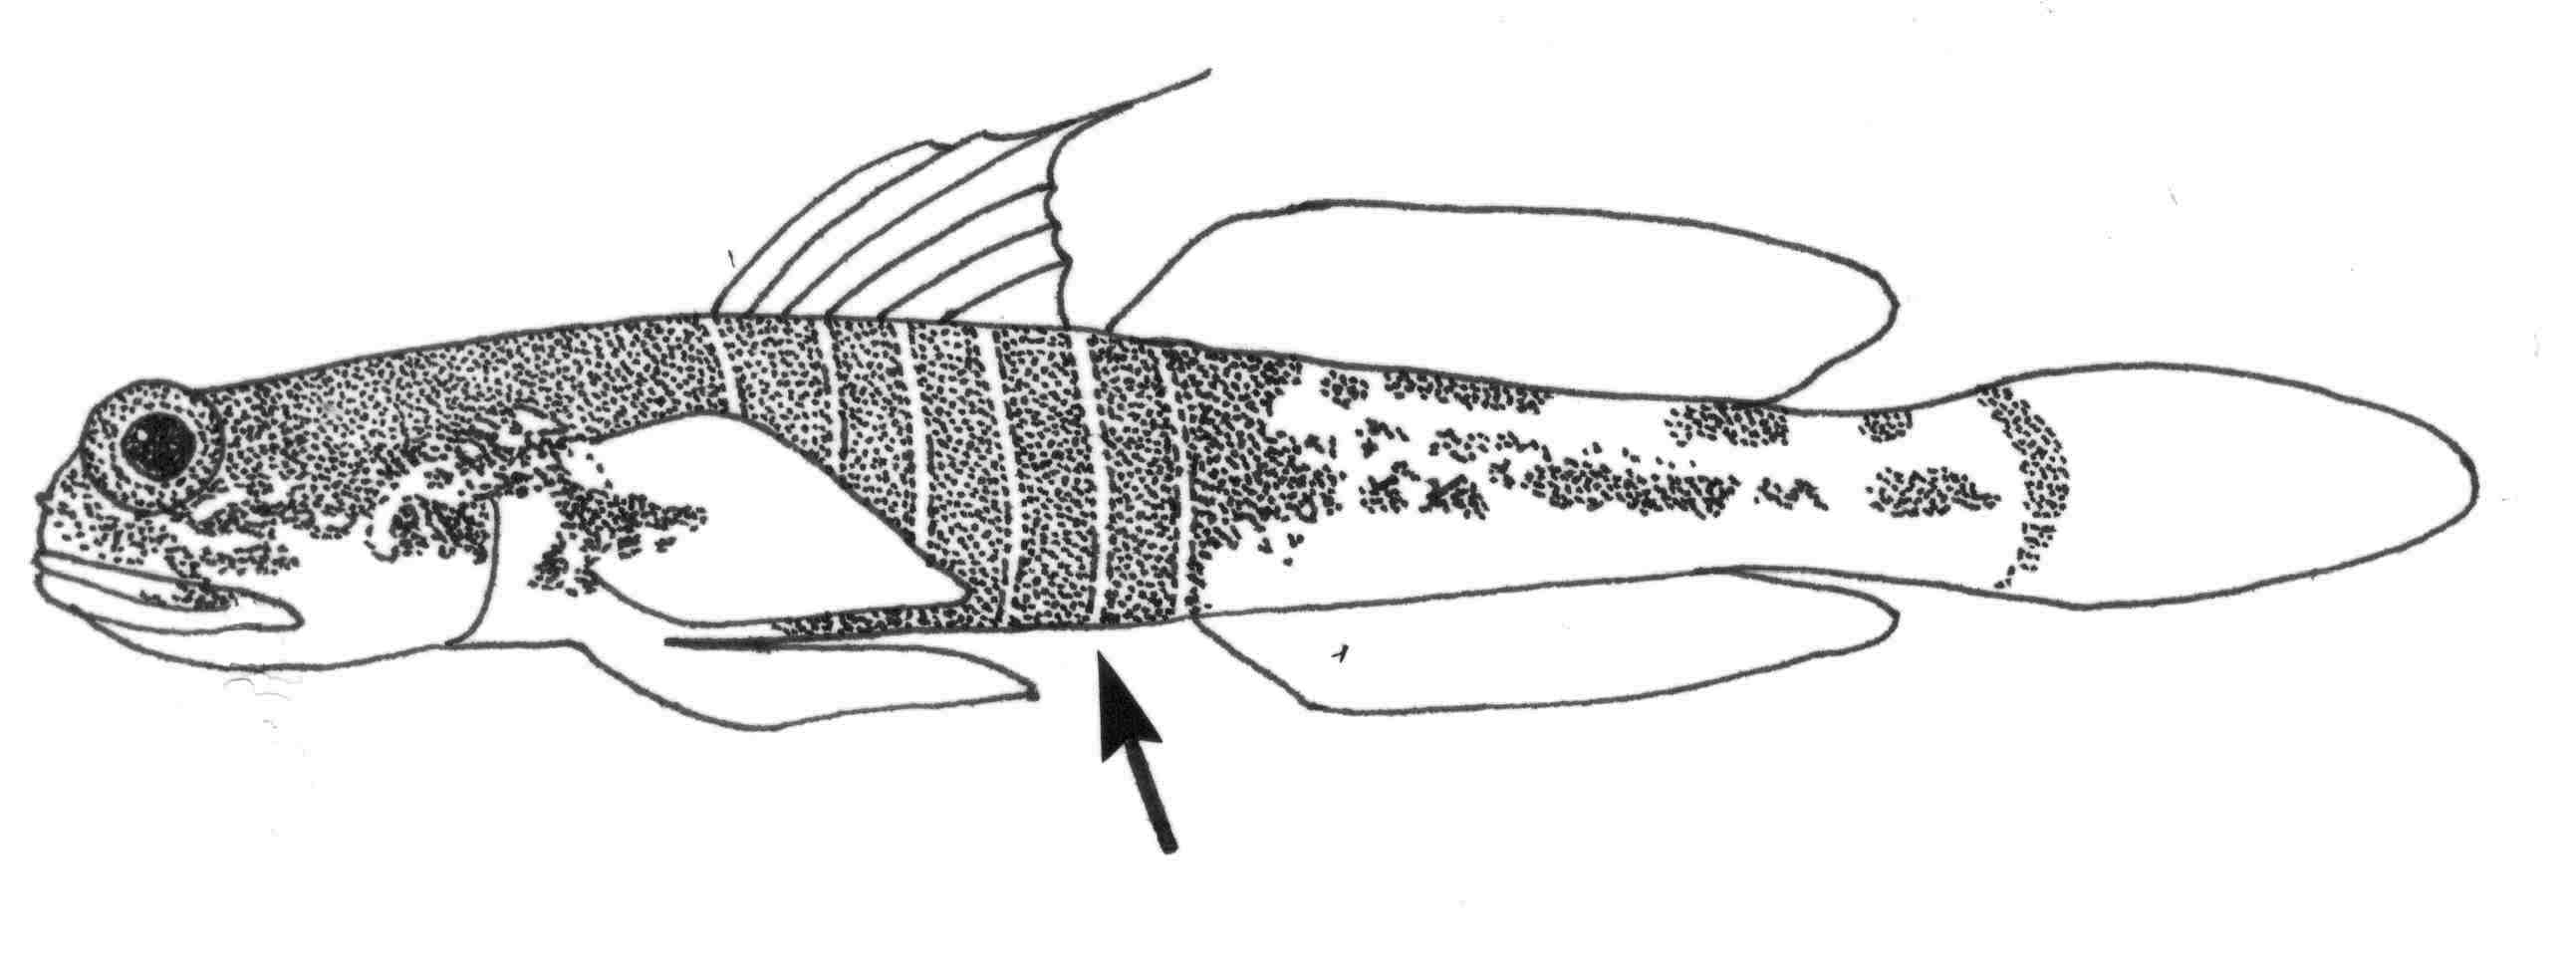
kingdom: Animalia
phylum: Chordata
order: Perciformes
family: Gobiidae
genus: Psilogobius
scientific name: Psilogobius randalli
